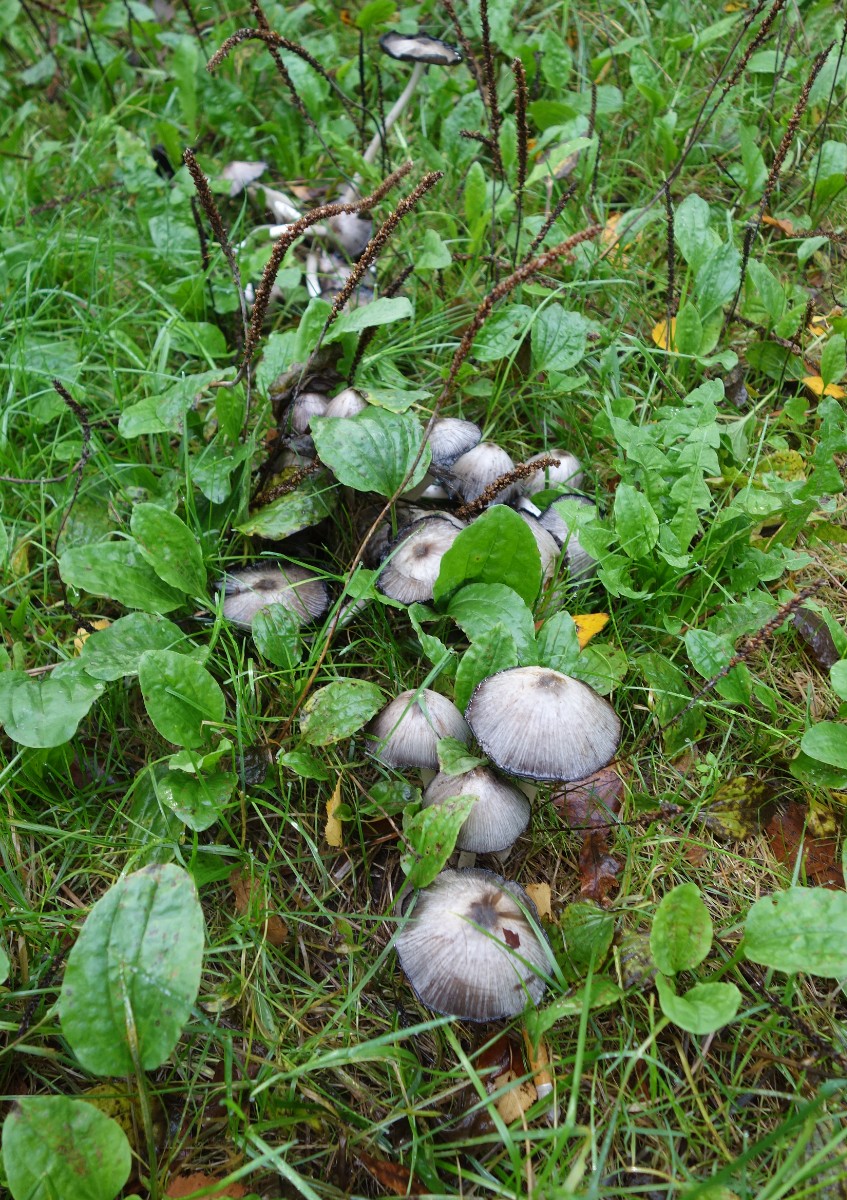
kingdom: Fungi
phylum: Basidiomycota
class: Agaricomycetes
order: Agaricales
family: Psathyrellaceae
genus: Coprinopsis
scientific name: Coprinopsis acuminata
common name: kegle-blækhat
